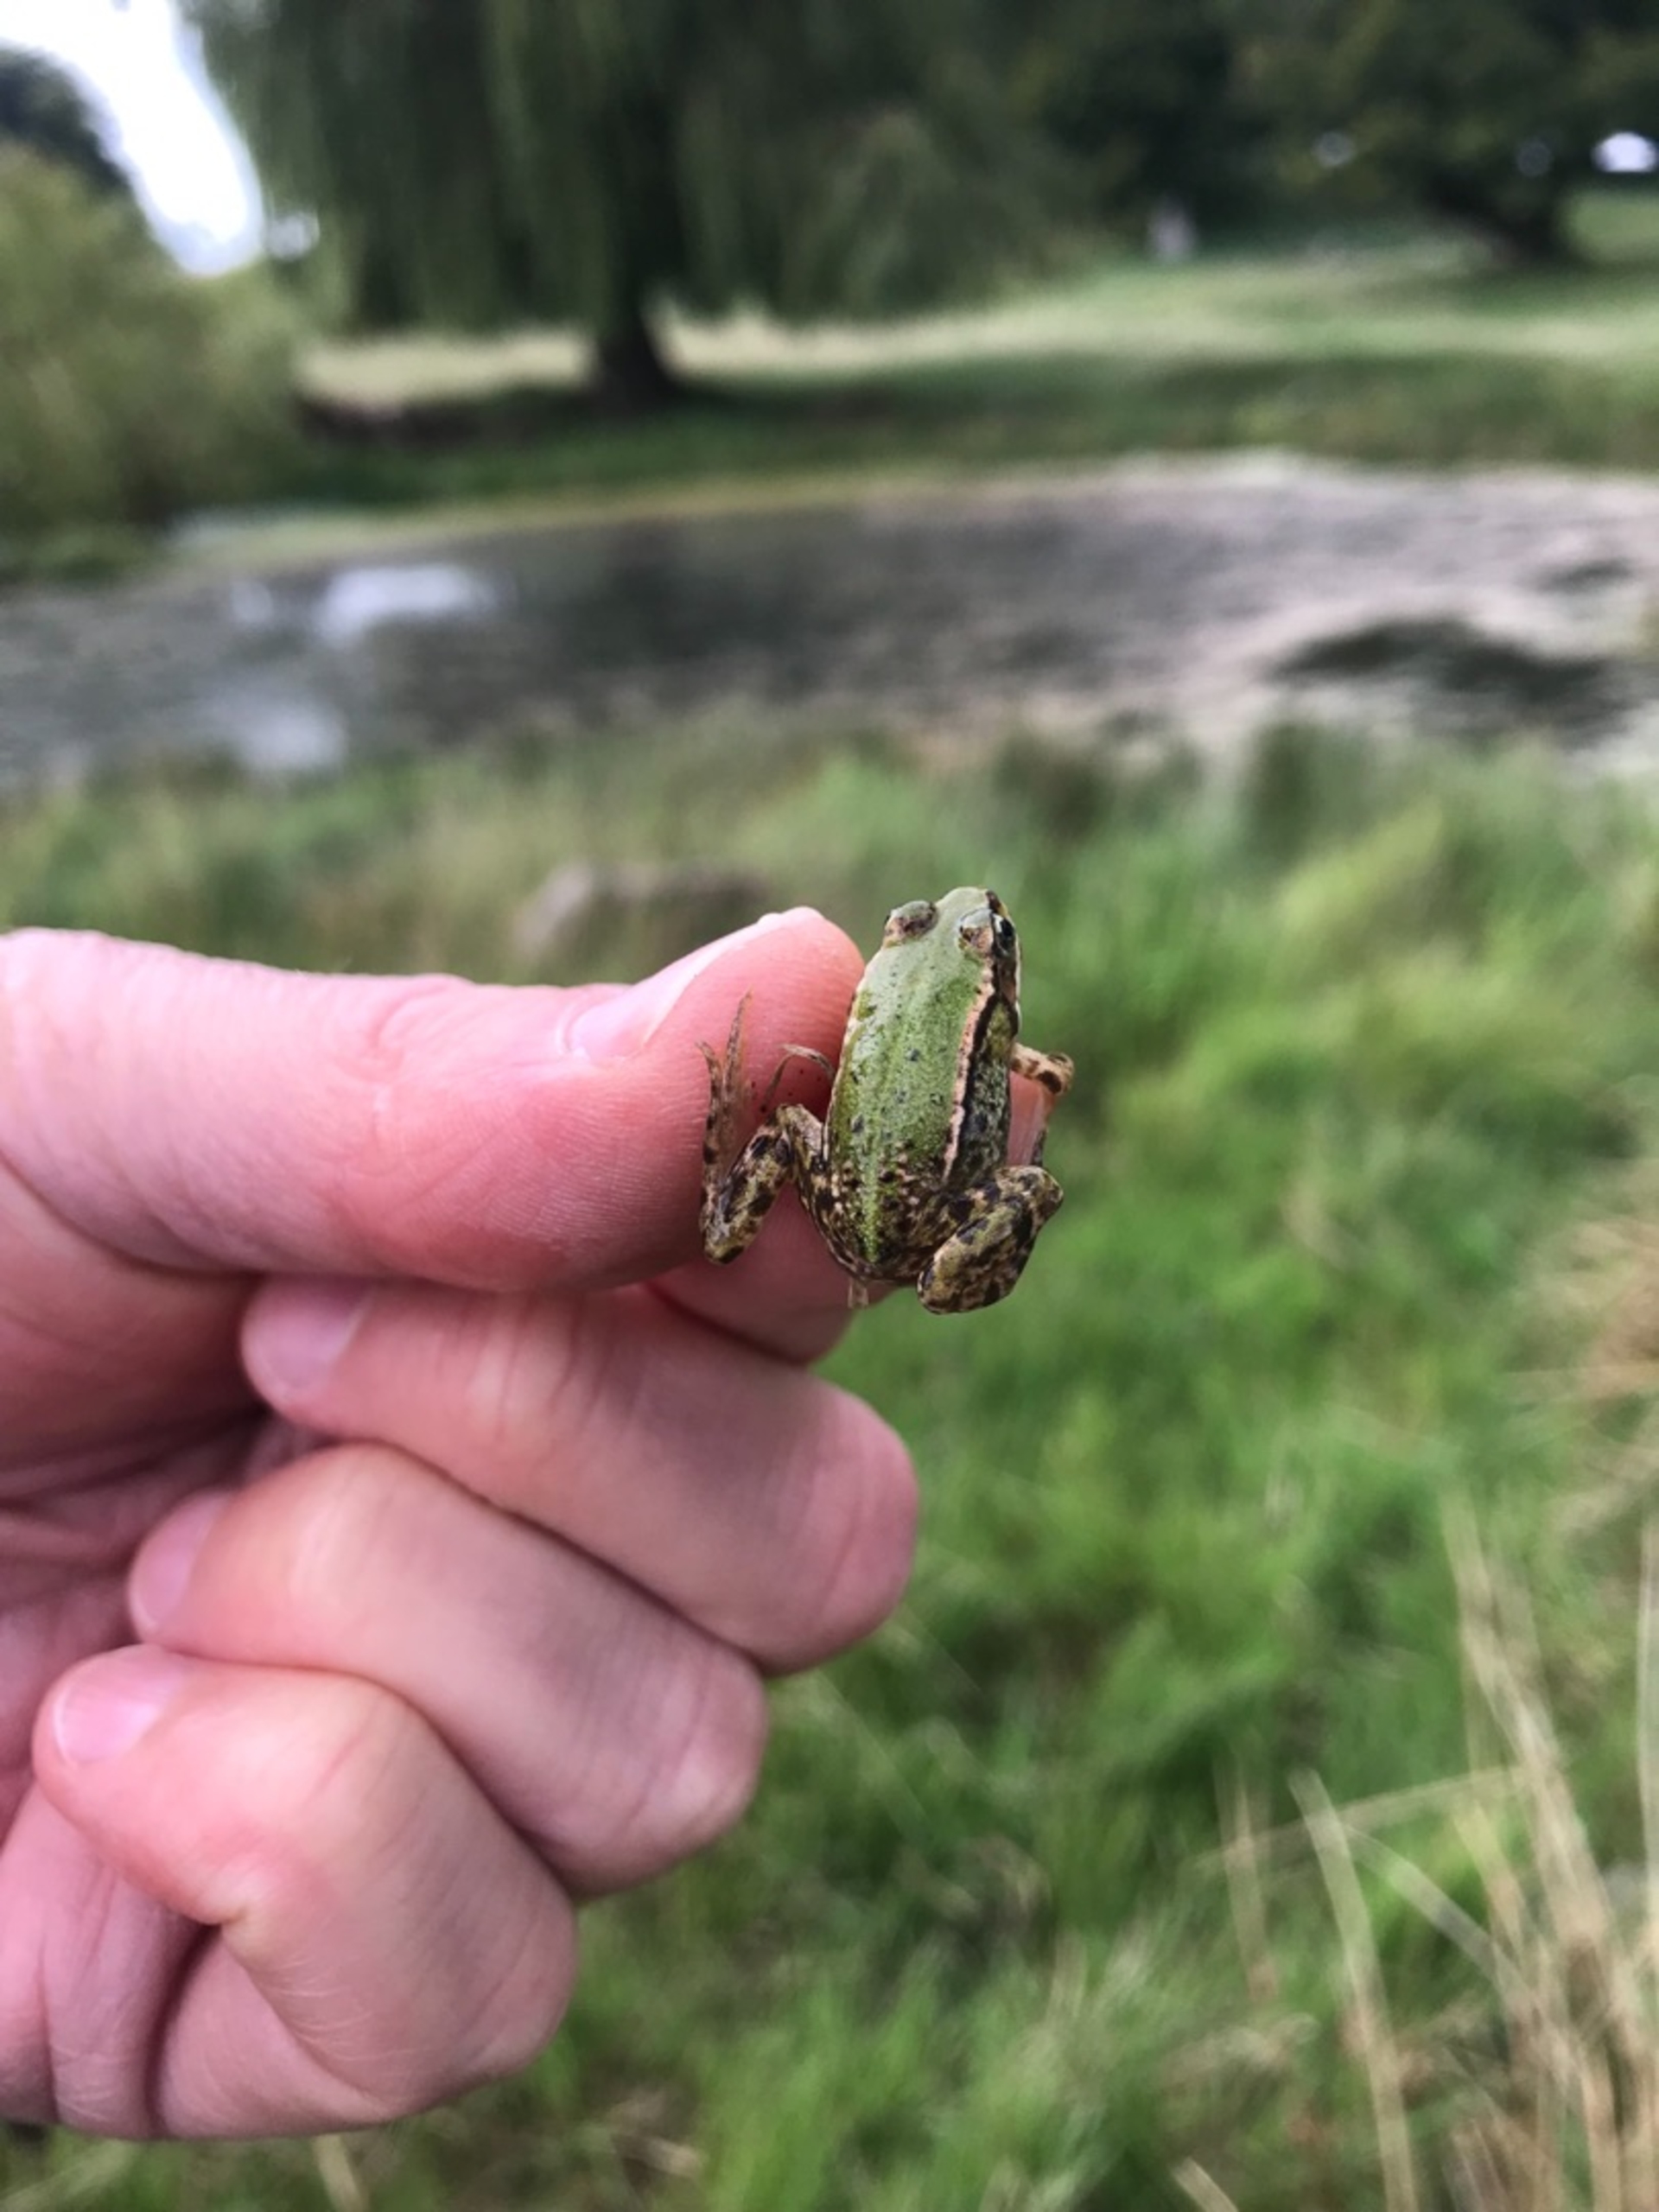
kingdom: Animalia
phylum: Chordata
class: Amphibia
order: Anura
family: Ranidae
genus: Pelophylax
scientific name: Pelophylax lessonae
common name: Grøn frø
